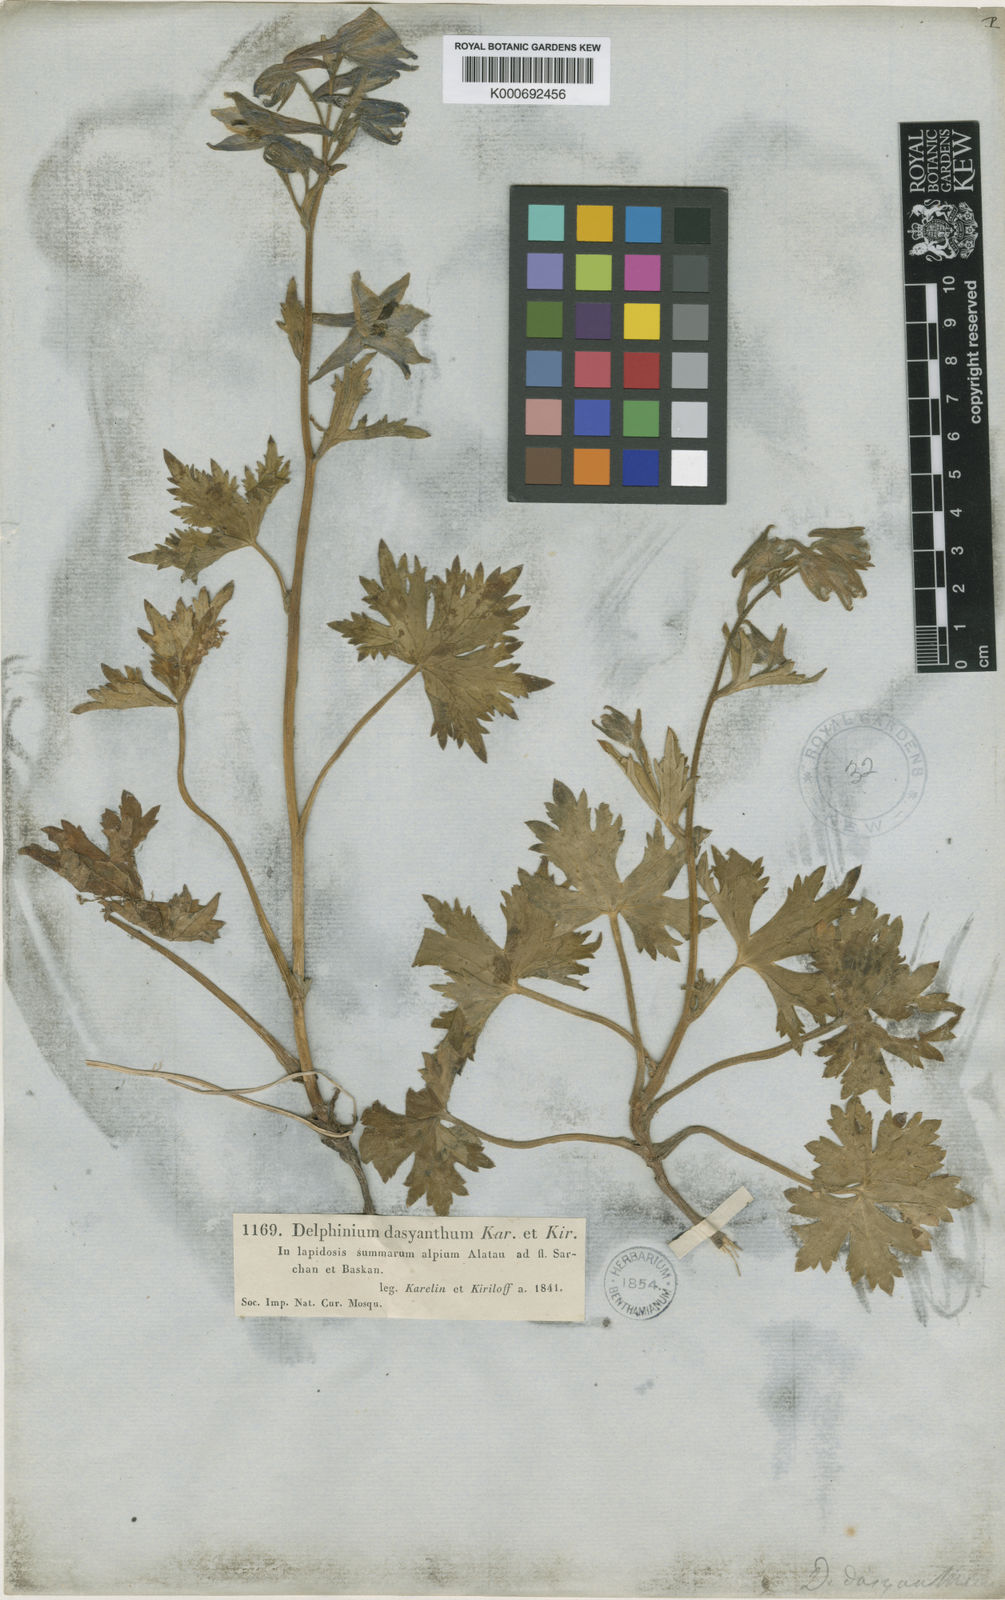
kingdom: Plantae
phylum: Tracheophyta
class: Magnoliopsida
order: Ranunculales
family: Ranunculaceae
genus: Delphinium
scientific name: Delphinium dasyanthum
